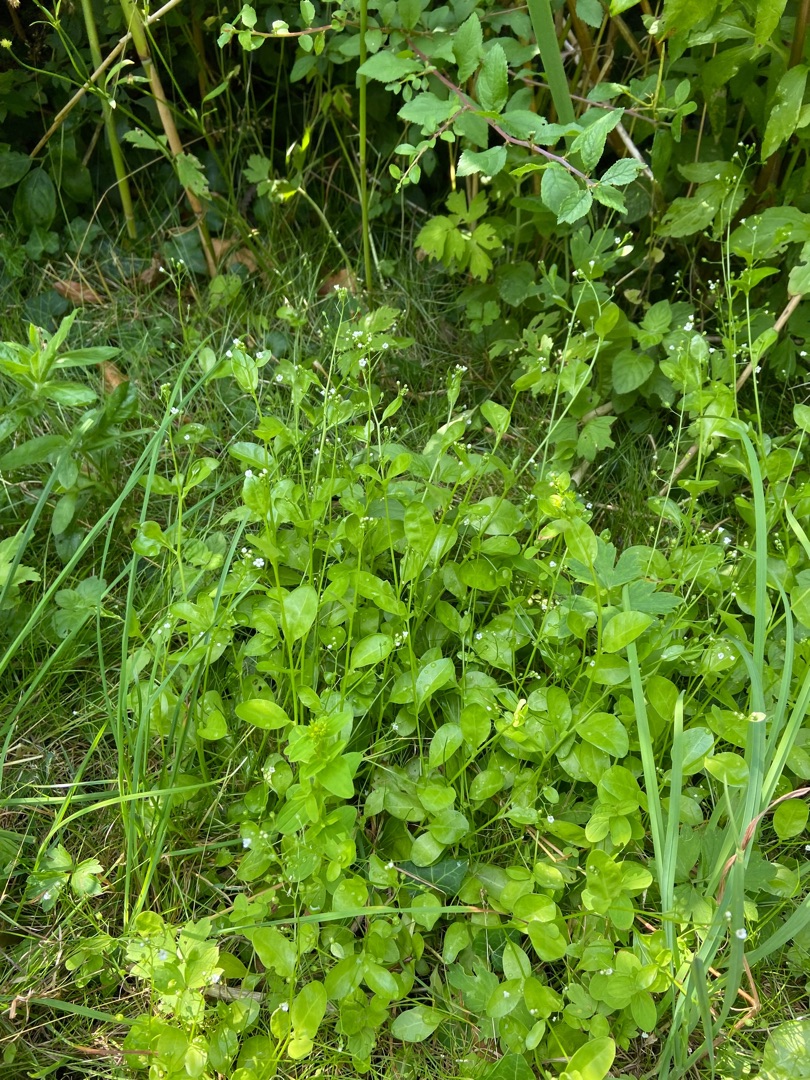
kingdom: Plantae
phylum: Tracheophyta
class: Magnoliopsida
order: Ericales
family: Primulaceae
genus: Samolus
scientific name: Samolus valerandi
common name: Samel
